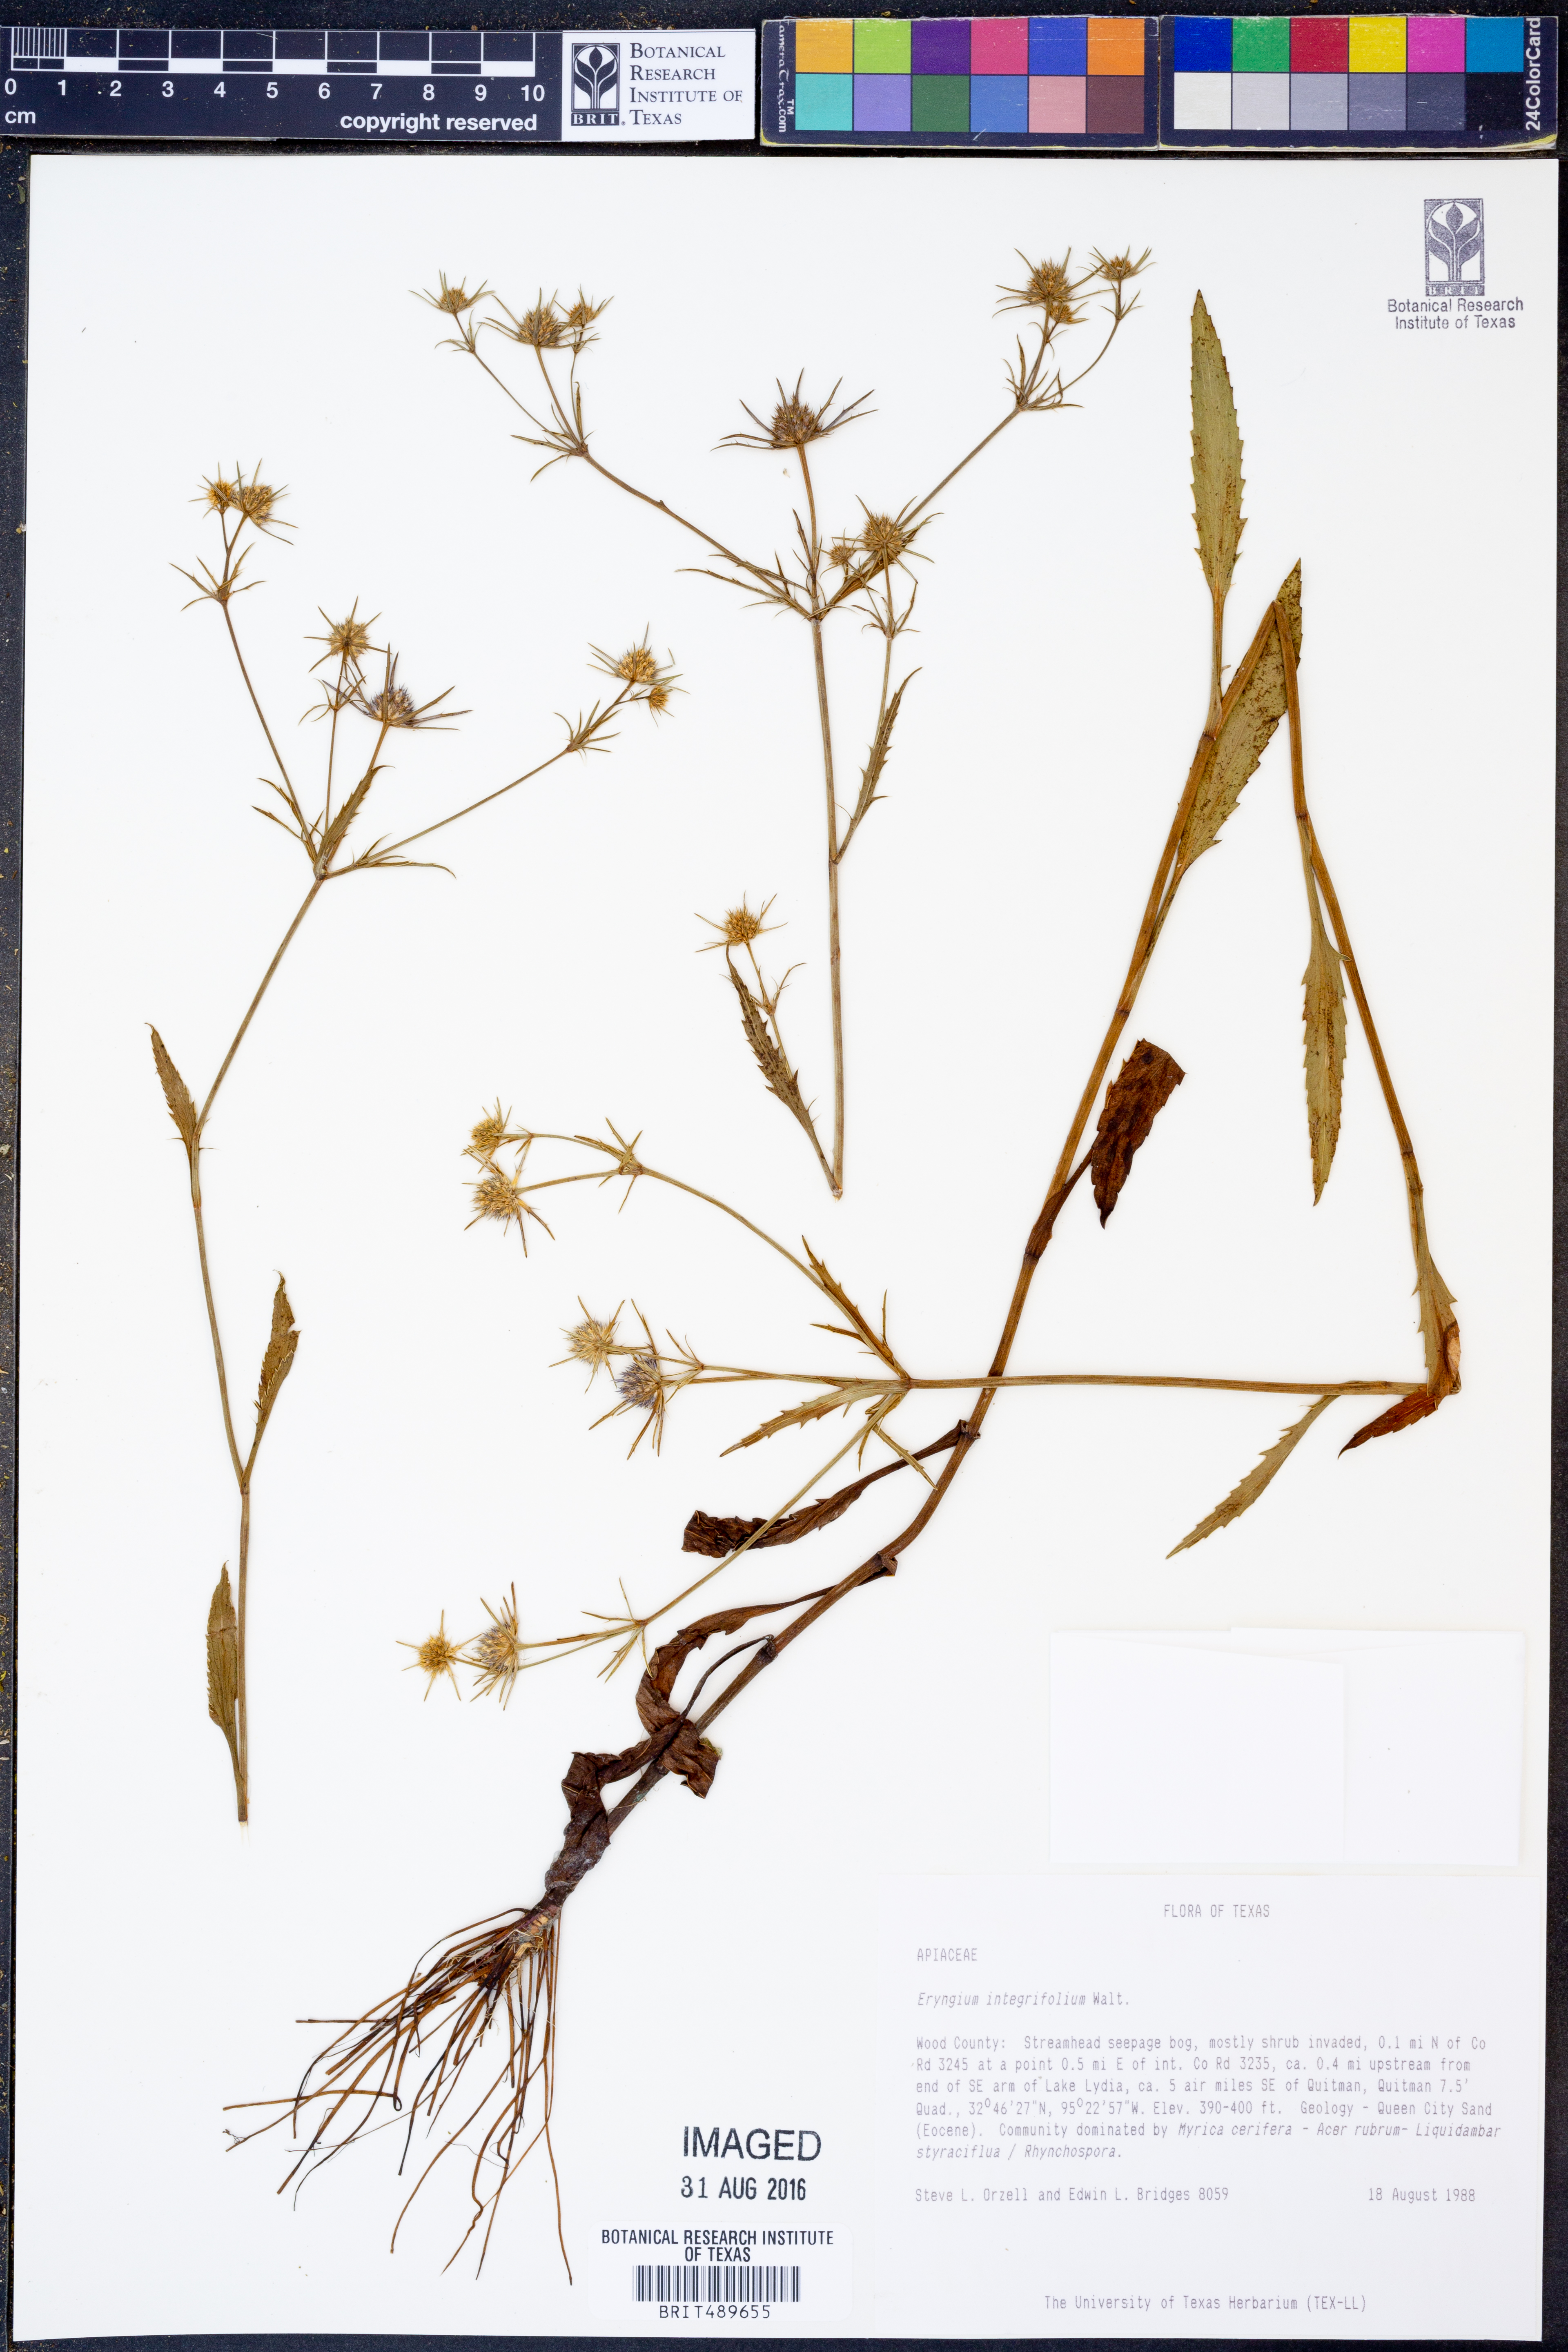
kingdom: Plantae
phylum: Tracheophyta
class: Magnoliopsida
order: Apiales
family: Apiaceae
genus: Eryngium
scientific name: Eryngium integrifolium
